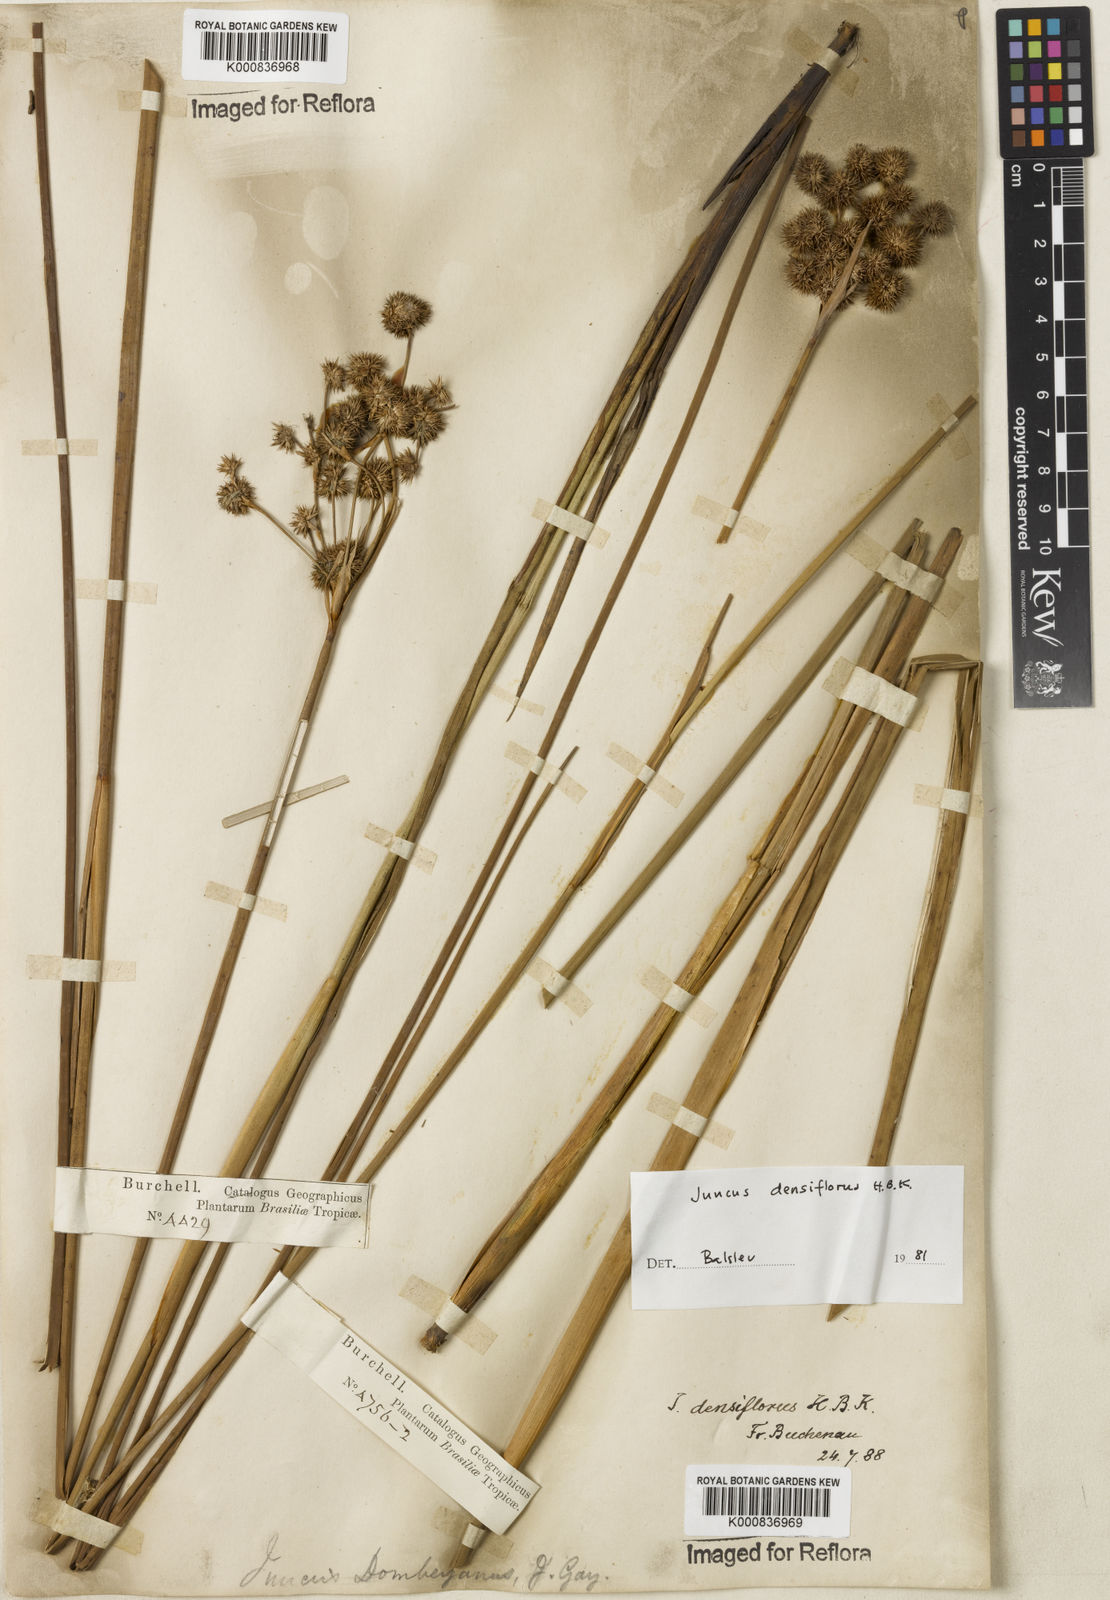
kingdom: Plantae
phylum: Tracheophyta
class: Liliopsida
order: Poales
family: Juncaceae
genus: Juncus
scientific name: Juncus densiflorus
